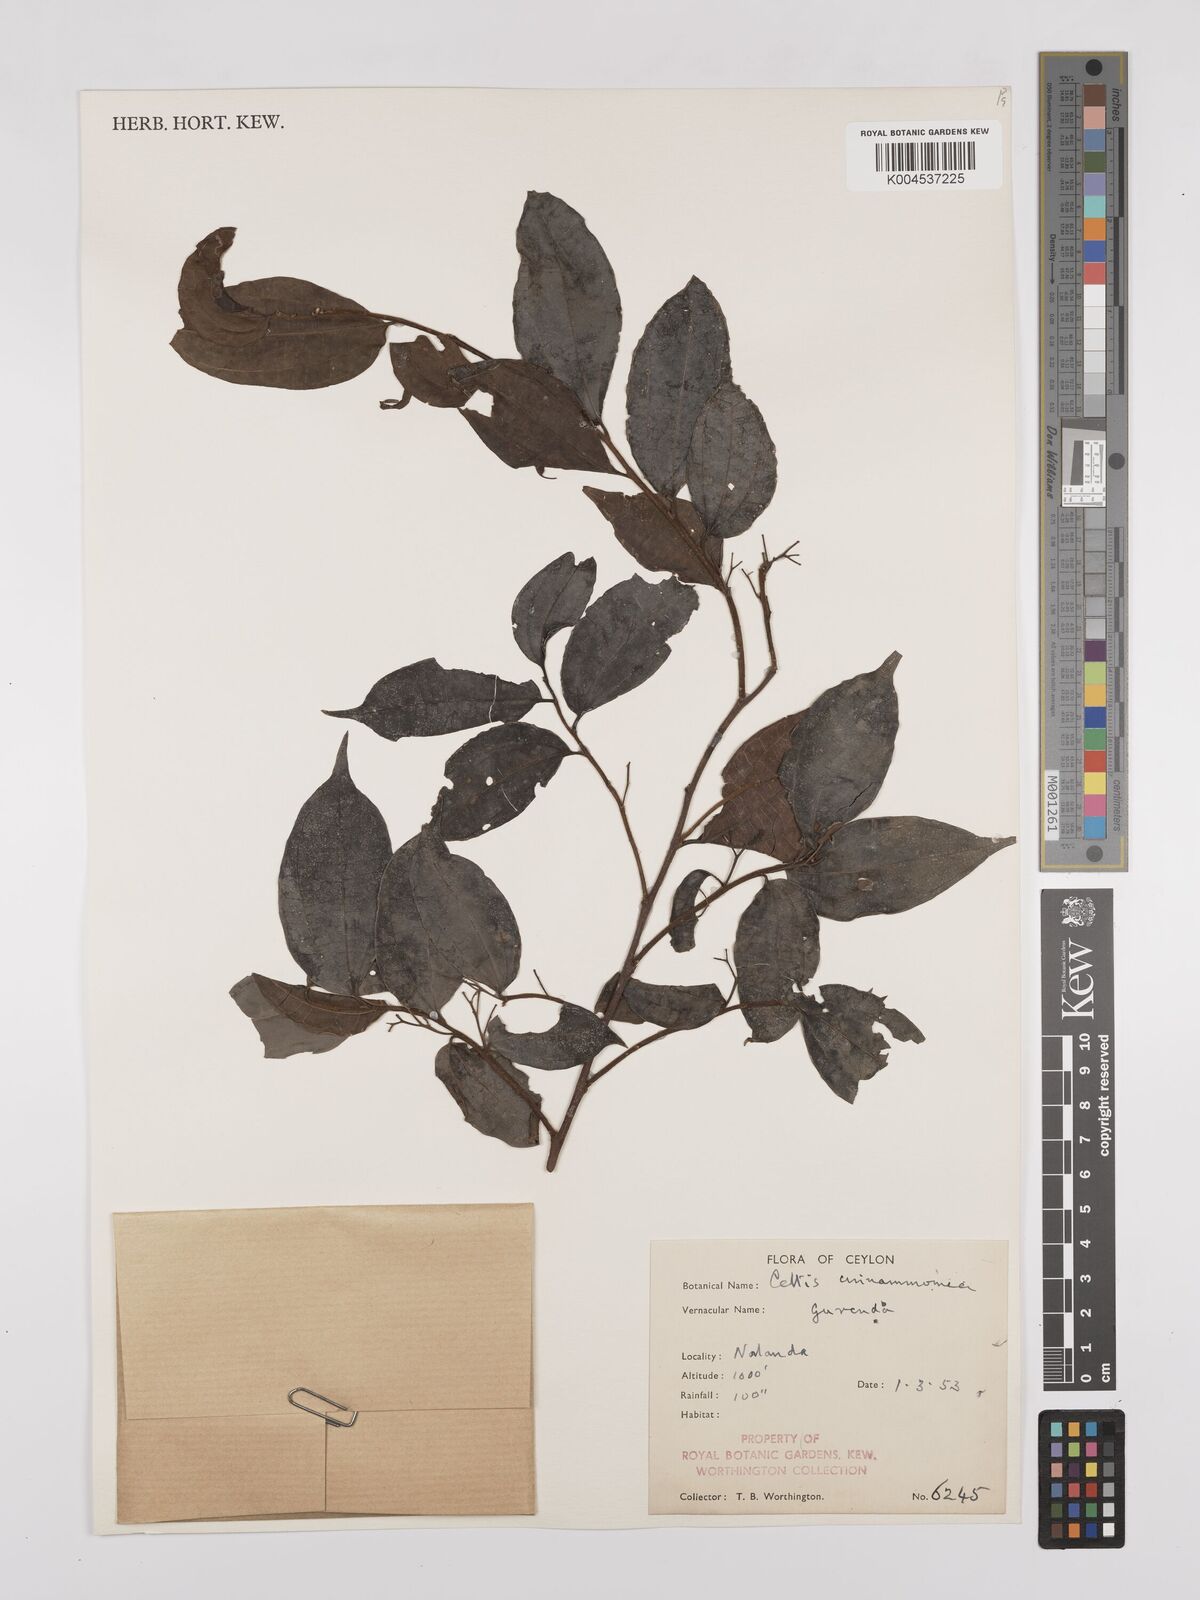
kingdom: Plantae
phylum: Tracheophyta
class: Magnoliopsida
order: Rosales
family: Cannabaceae
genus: Celtis
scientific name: Celtis timorensis
